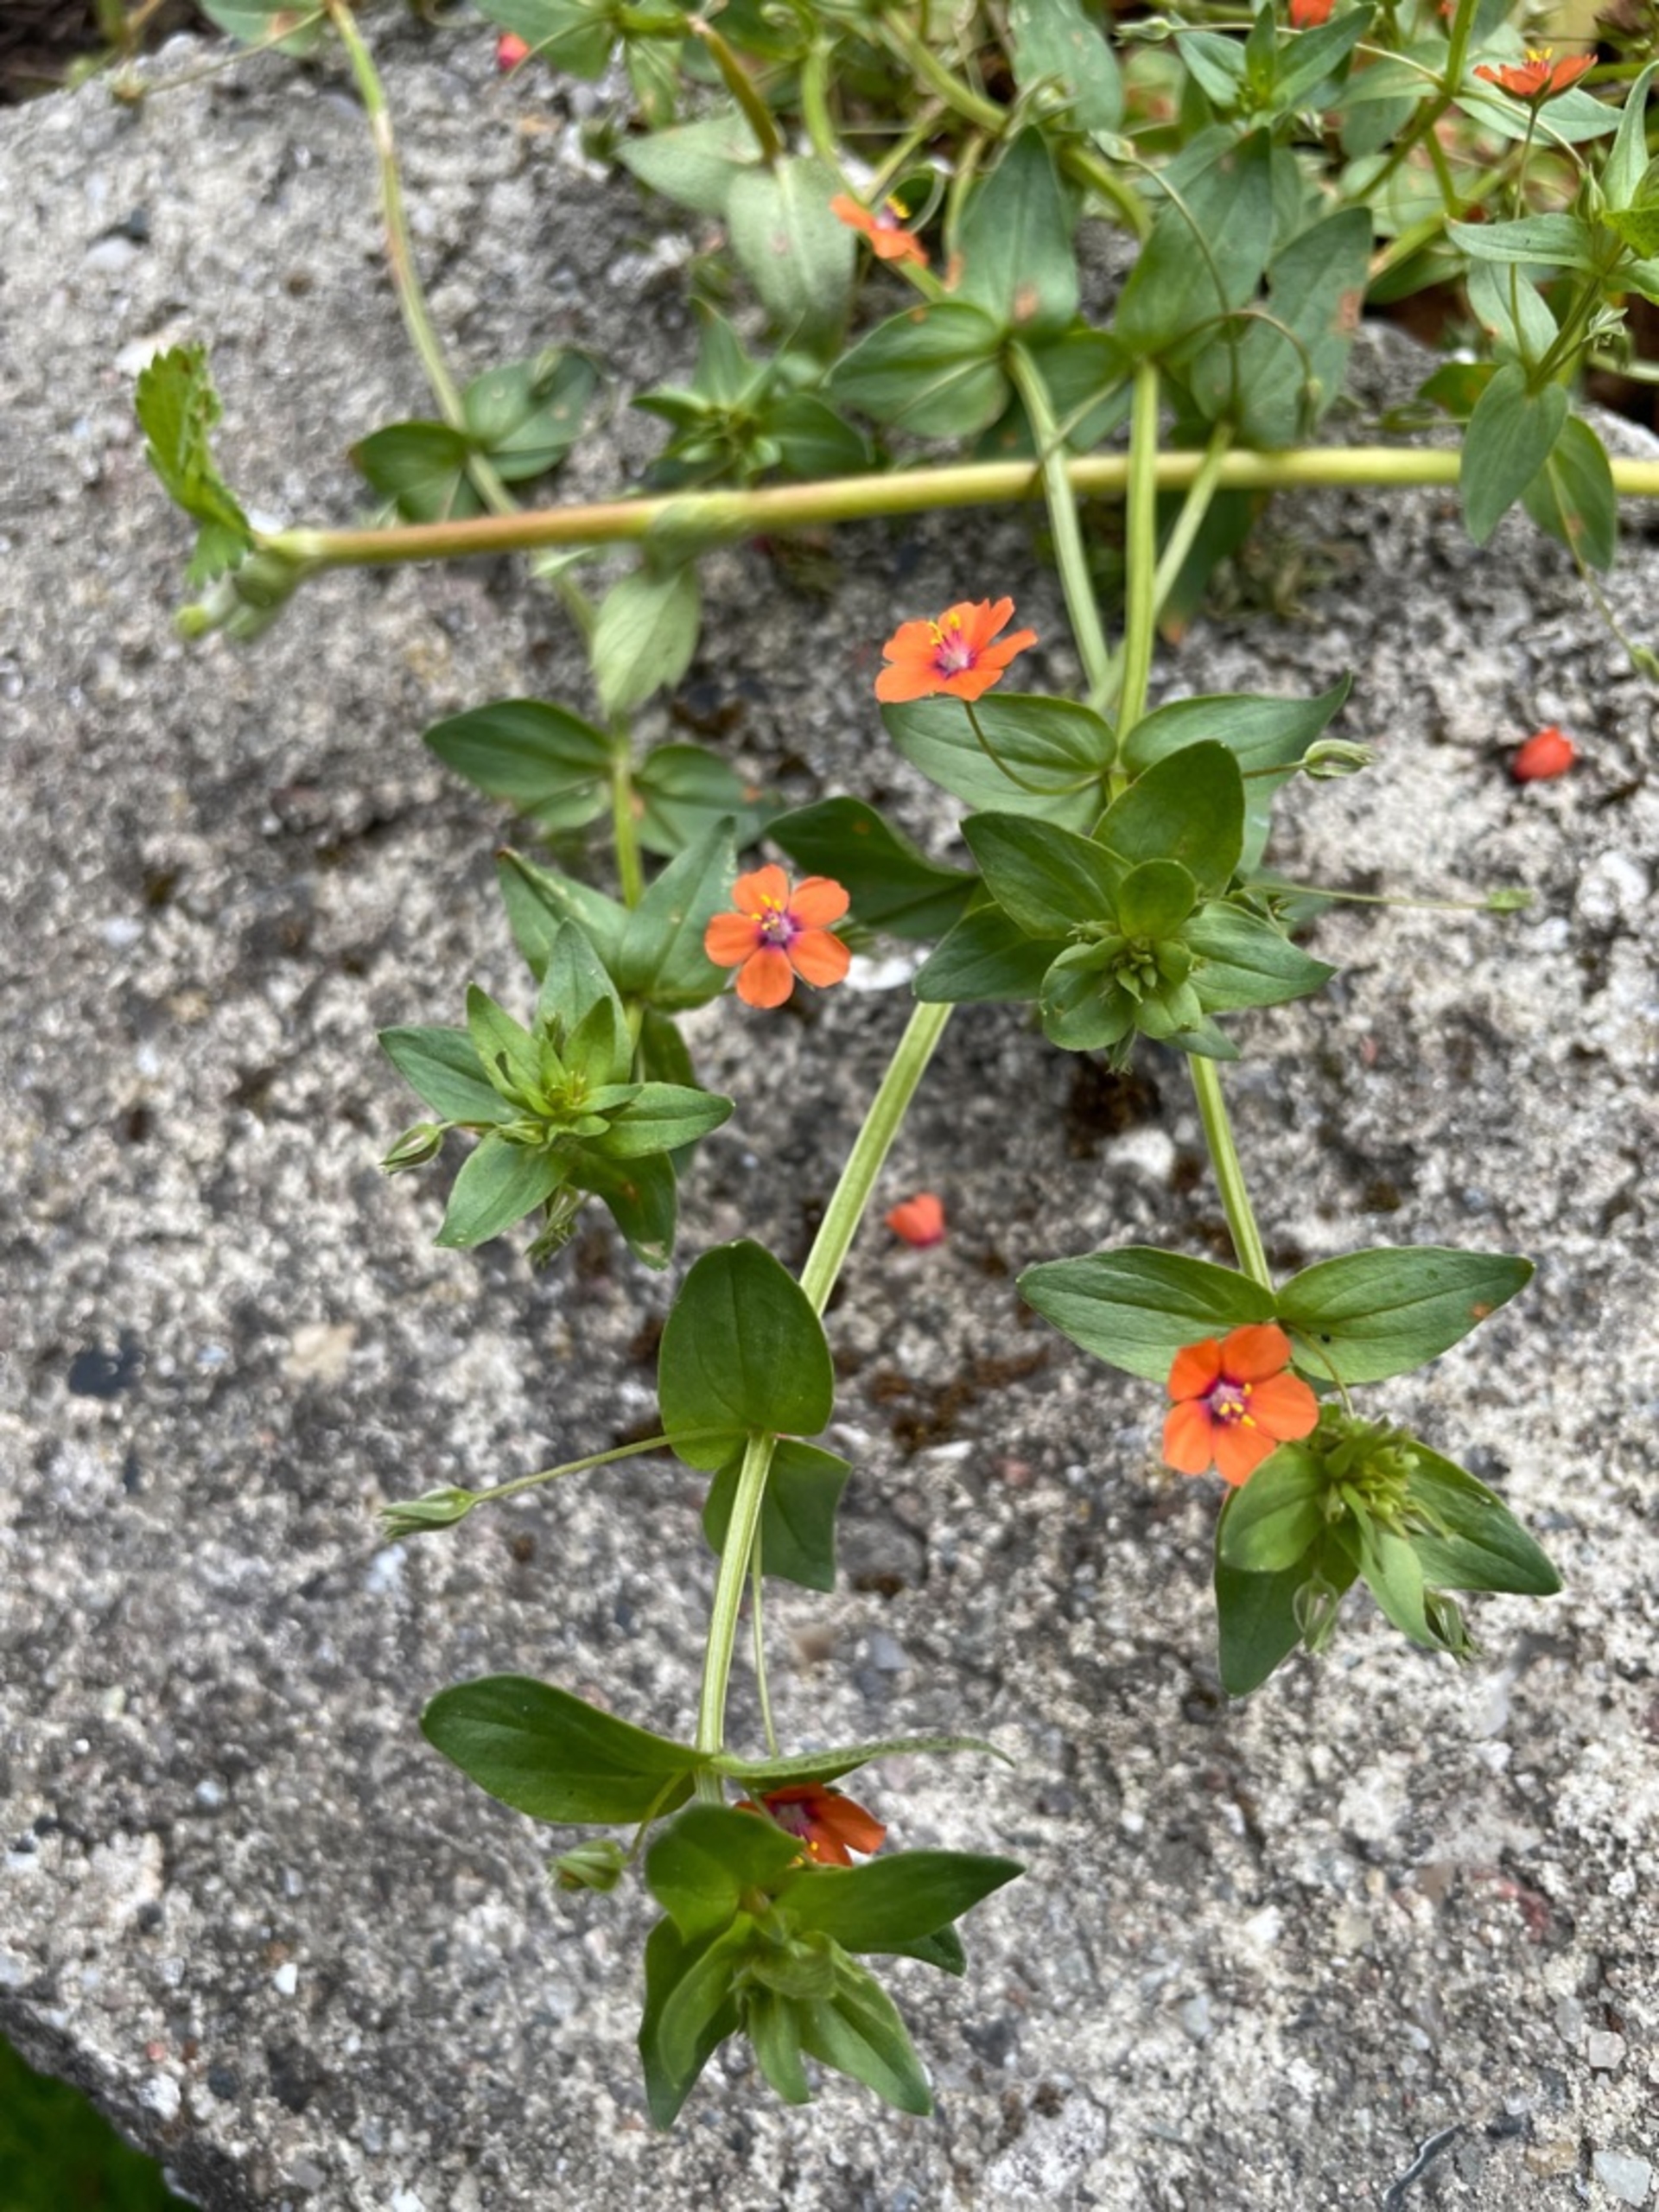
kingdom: Plantae
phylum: Tracheophyta
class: Magnoliopsida
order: Ericales
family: Primulaceae
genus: Lysimachia
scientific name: Lysimachia arvensis
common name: Rød arve
